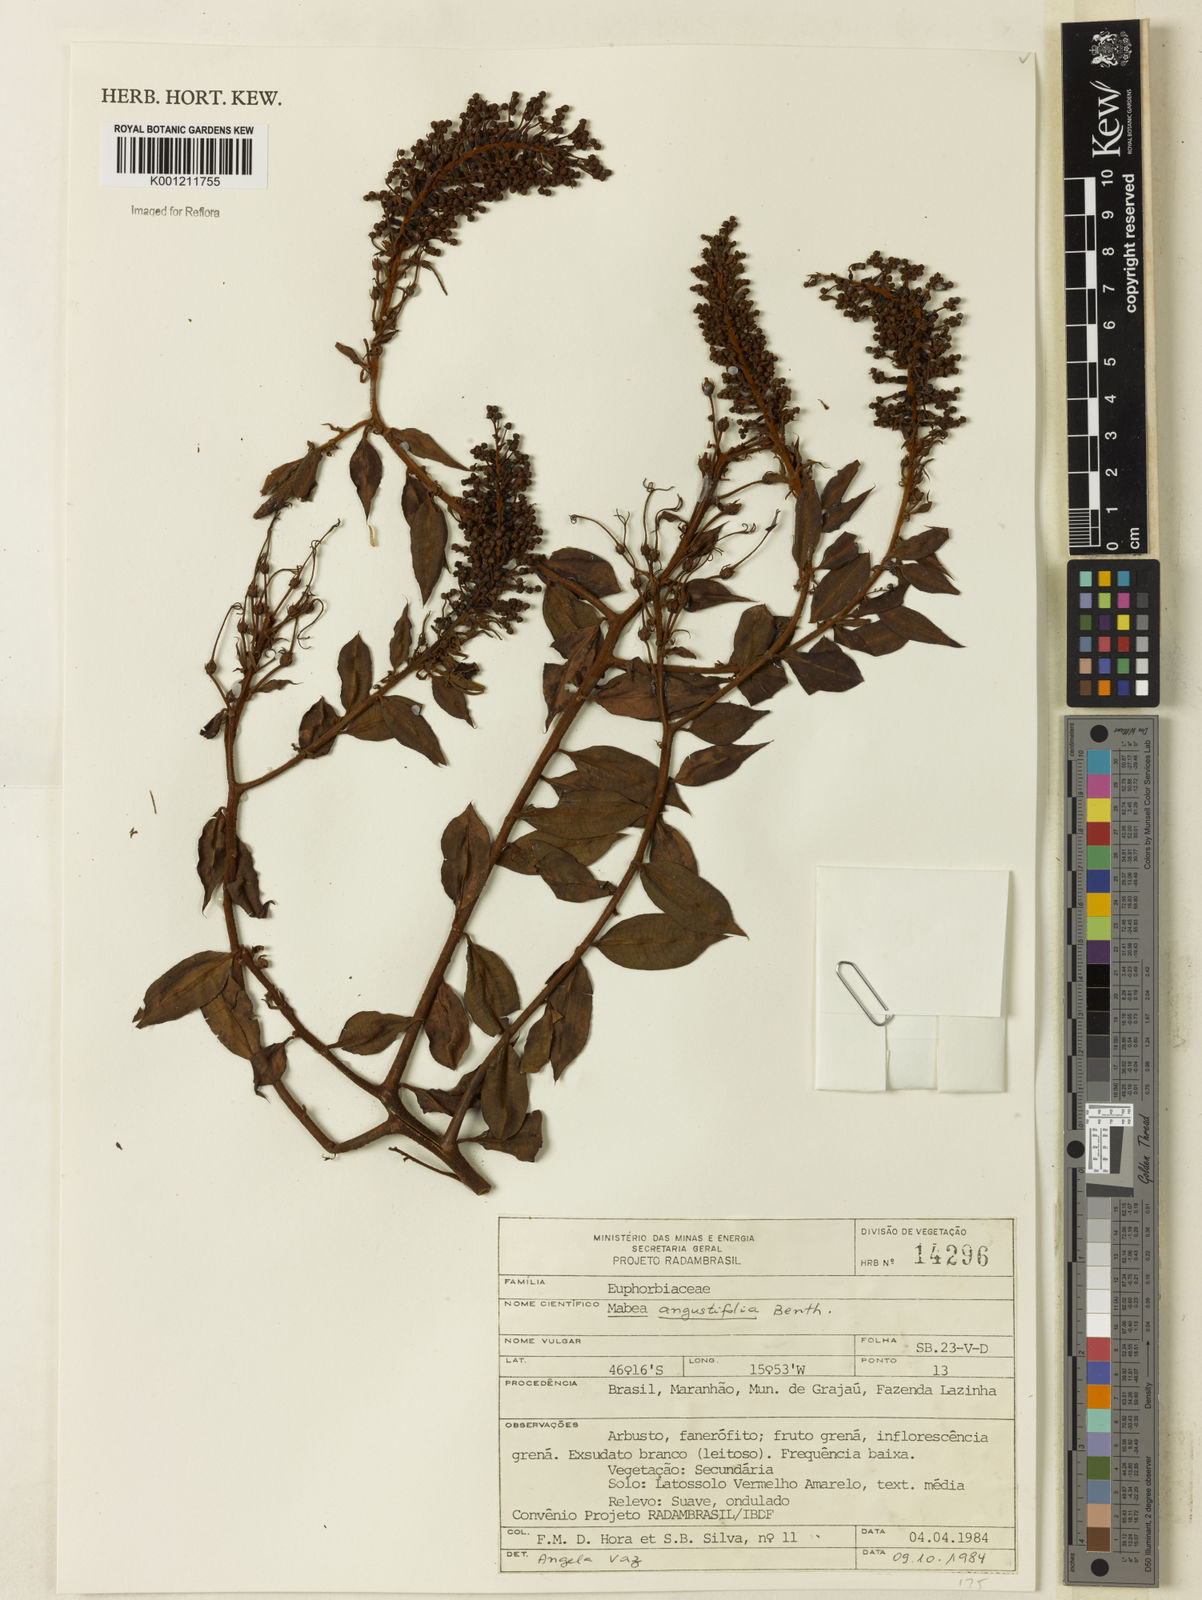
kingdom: Plantae
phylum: Tracheophyta
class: Magnoliopsida
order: Malpighiales
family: Euphorbiaceae
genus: Mabea
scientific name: Mabea angustifolia
